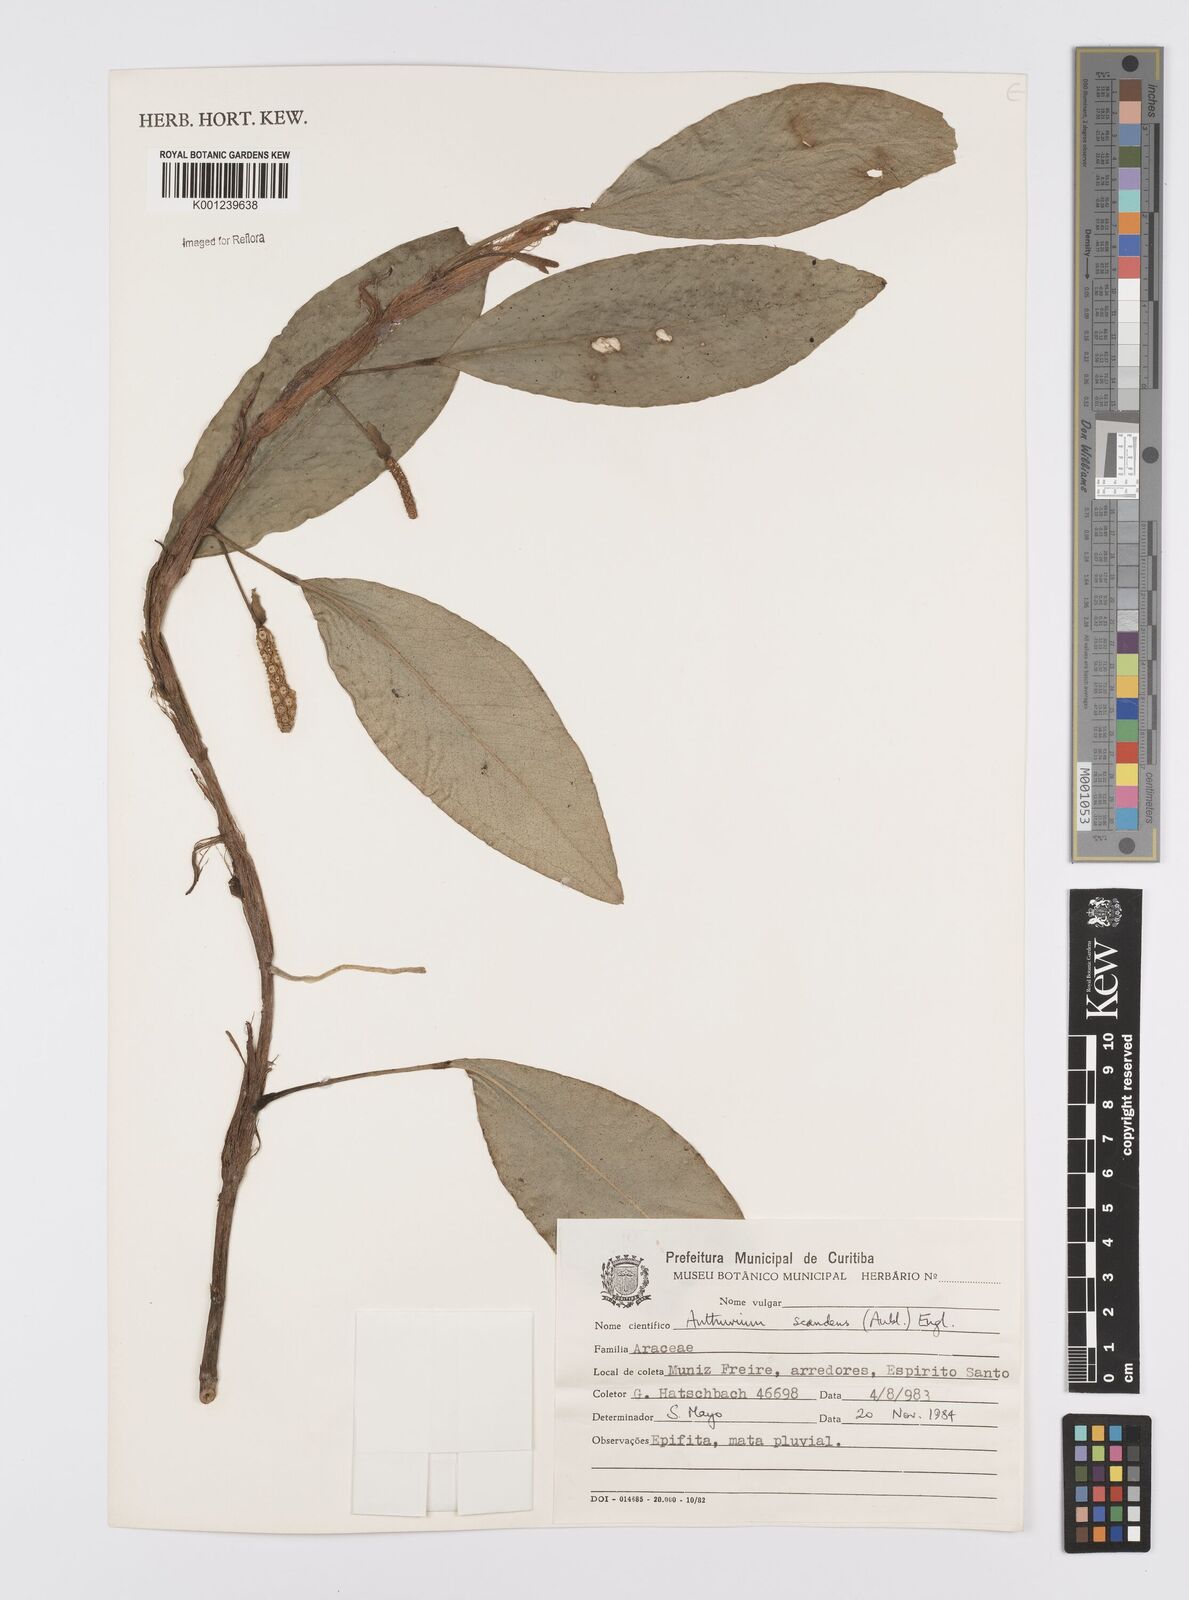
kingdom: Plantae
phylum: Tracheophyta
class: Liliopsida
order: Alismatales
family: Araceae
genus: Anthurium
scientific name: Anthurium scandens
